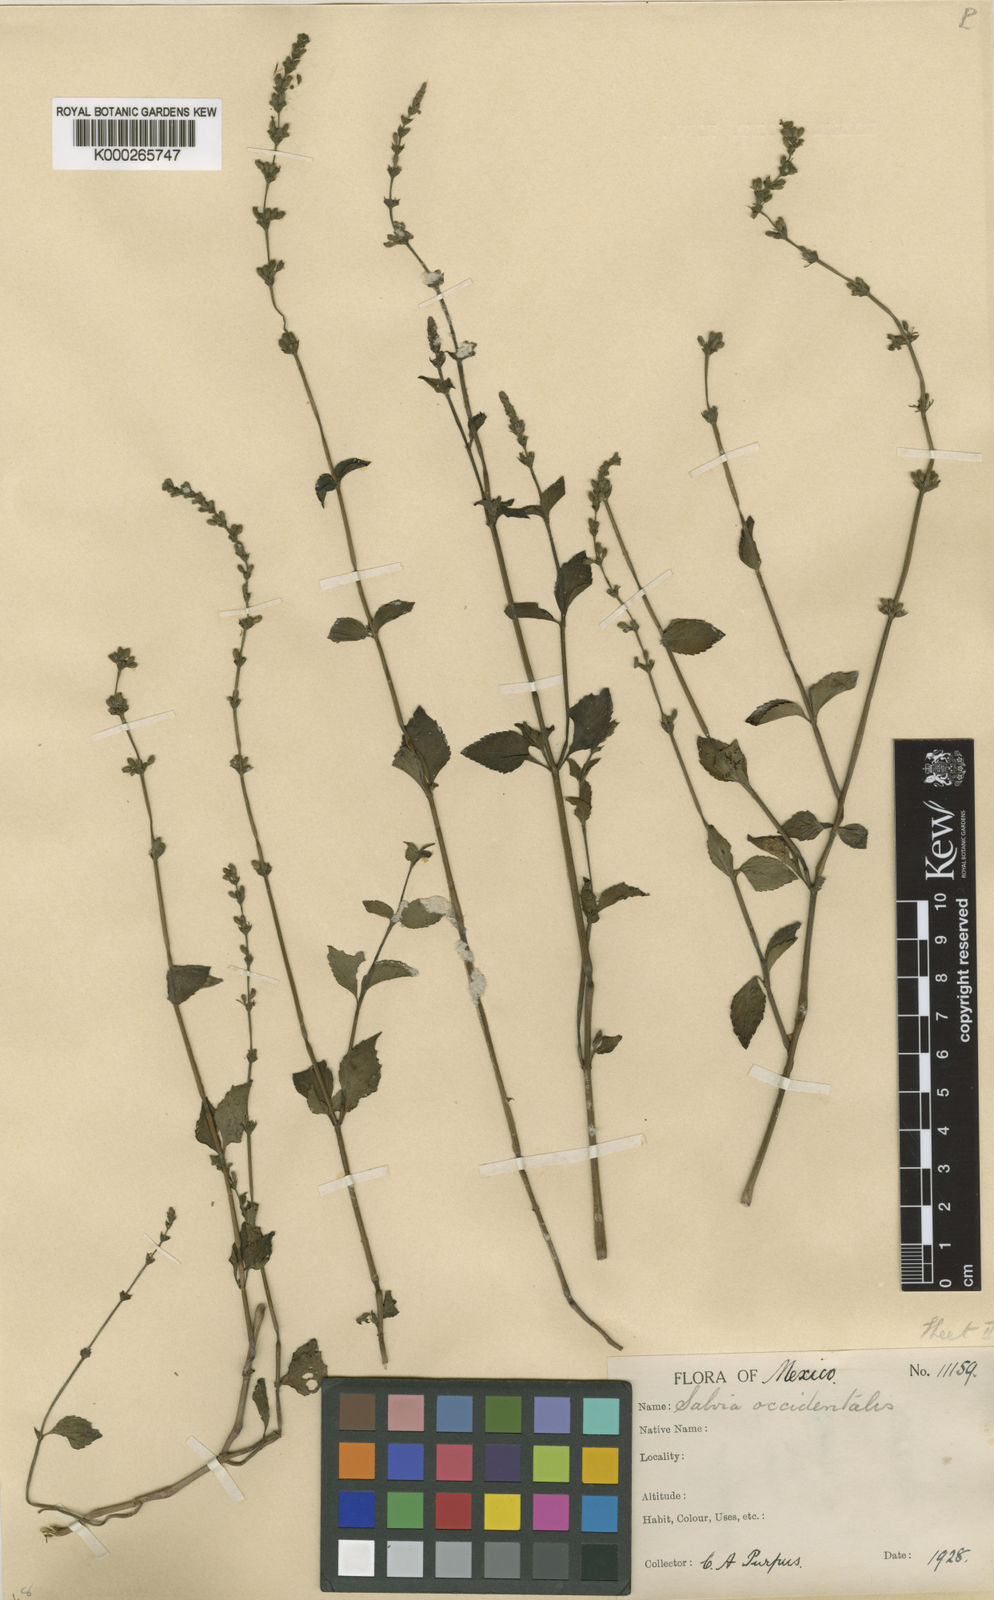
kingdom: Plantae
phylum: Tracheophyta
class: Magnoliopsida
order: Lamiales
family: Lamiaceae
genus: Salvia
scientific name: Salvia occidentalis
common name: West indian sage
